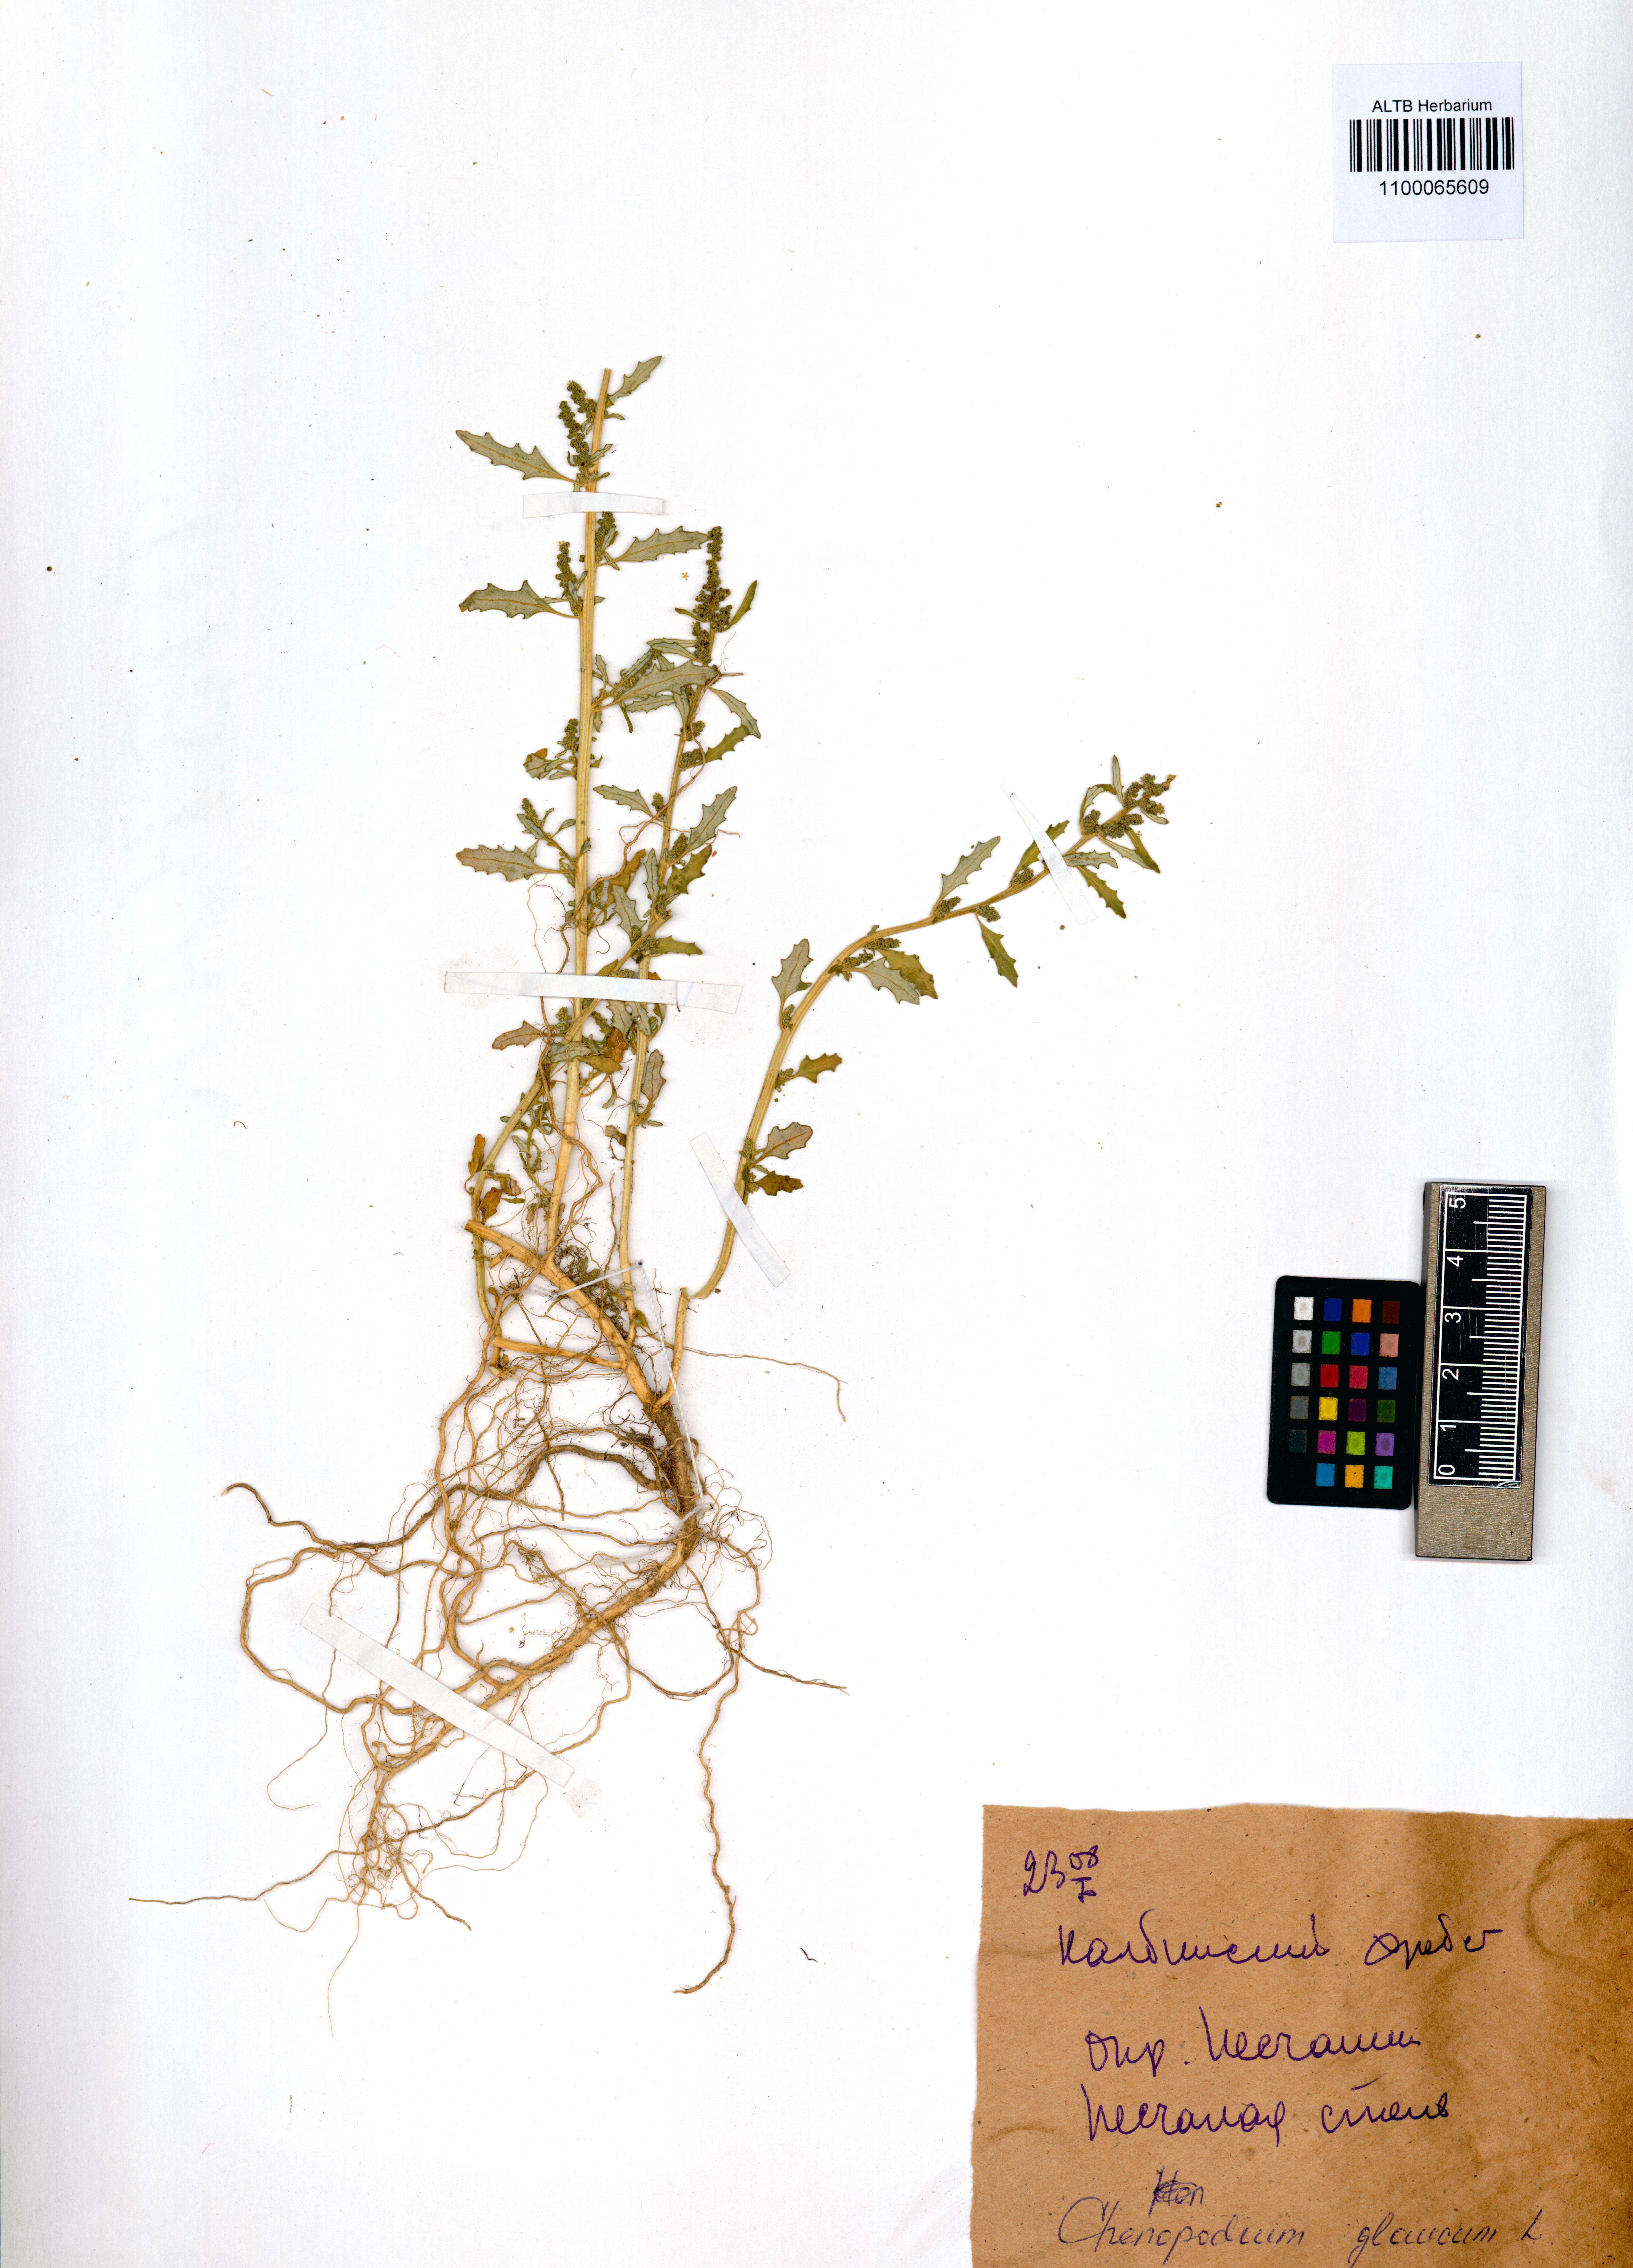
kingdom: Plantae
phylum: Tracheophyta
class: Magnoliopsida
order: Caryophyllales
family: Amaranthaceae
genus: Oxybasis
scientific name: Oxybasis glauca
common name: Glaucous goosefoot
